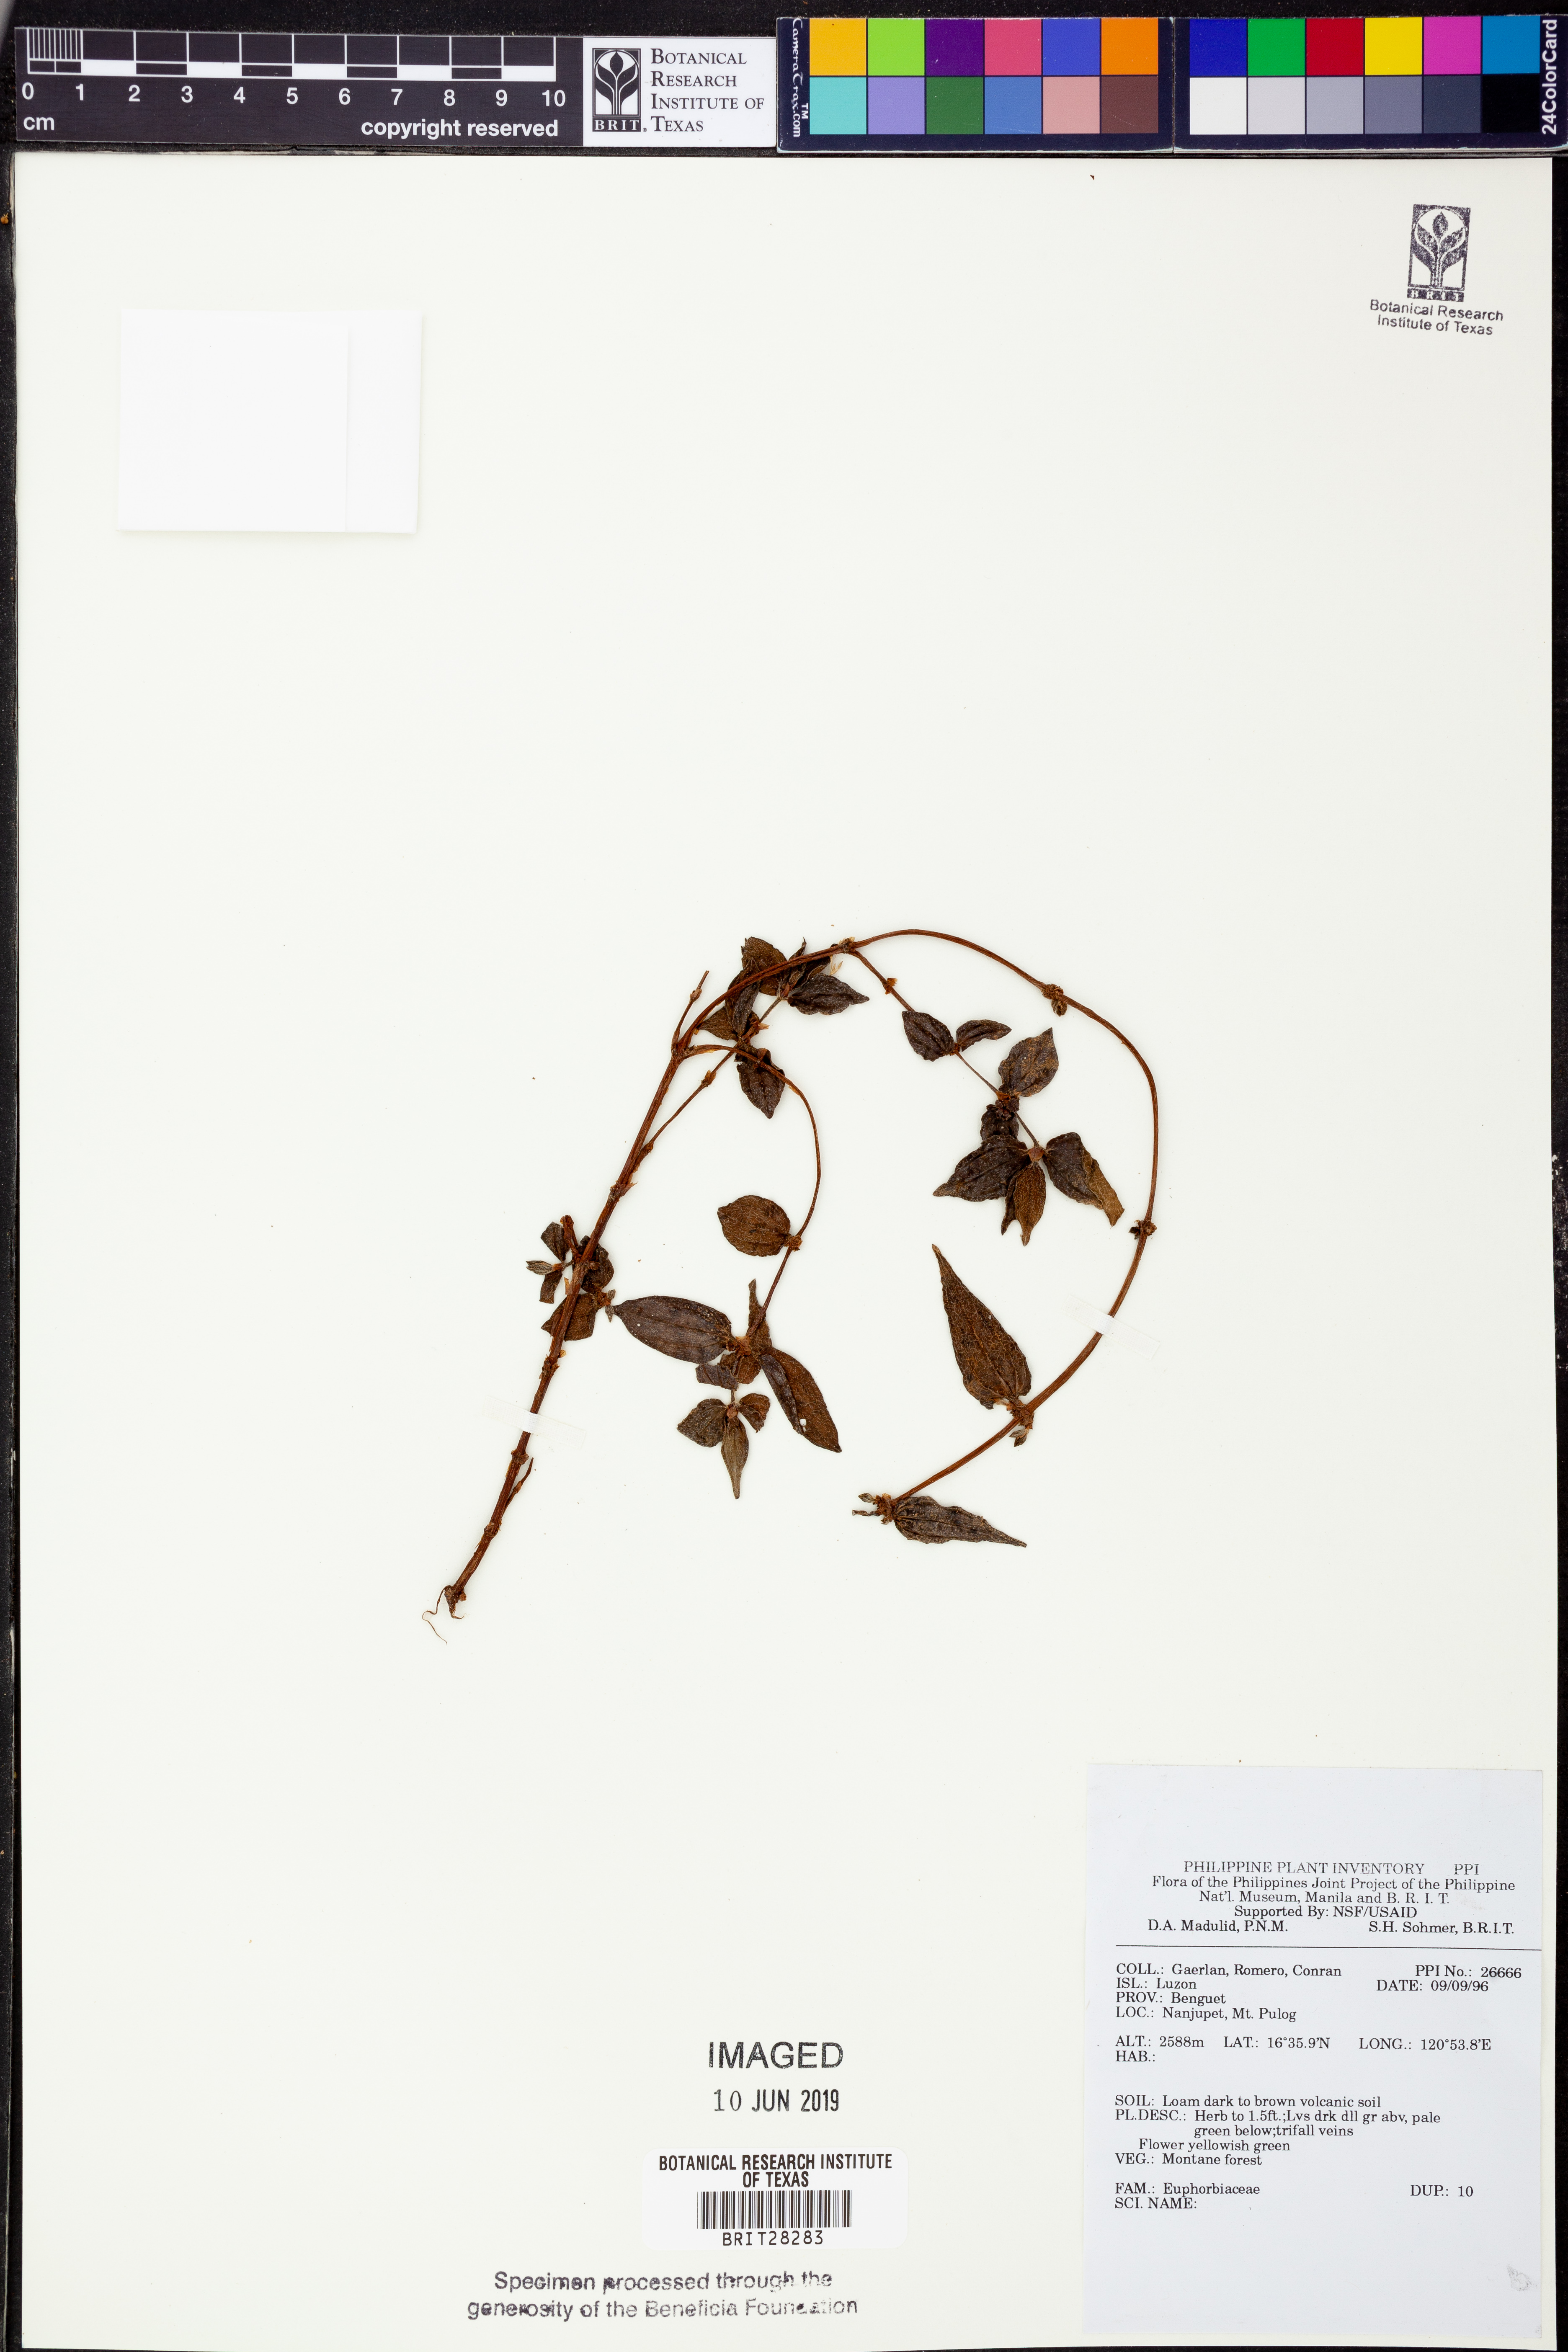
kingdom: Plantae
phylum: Tracheophyta
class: Magnoliopsida
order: Malpighiales
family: Euphorbiaceae
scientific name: Euphorbiaceae
